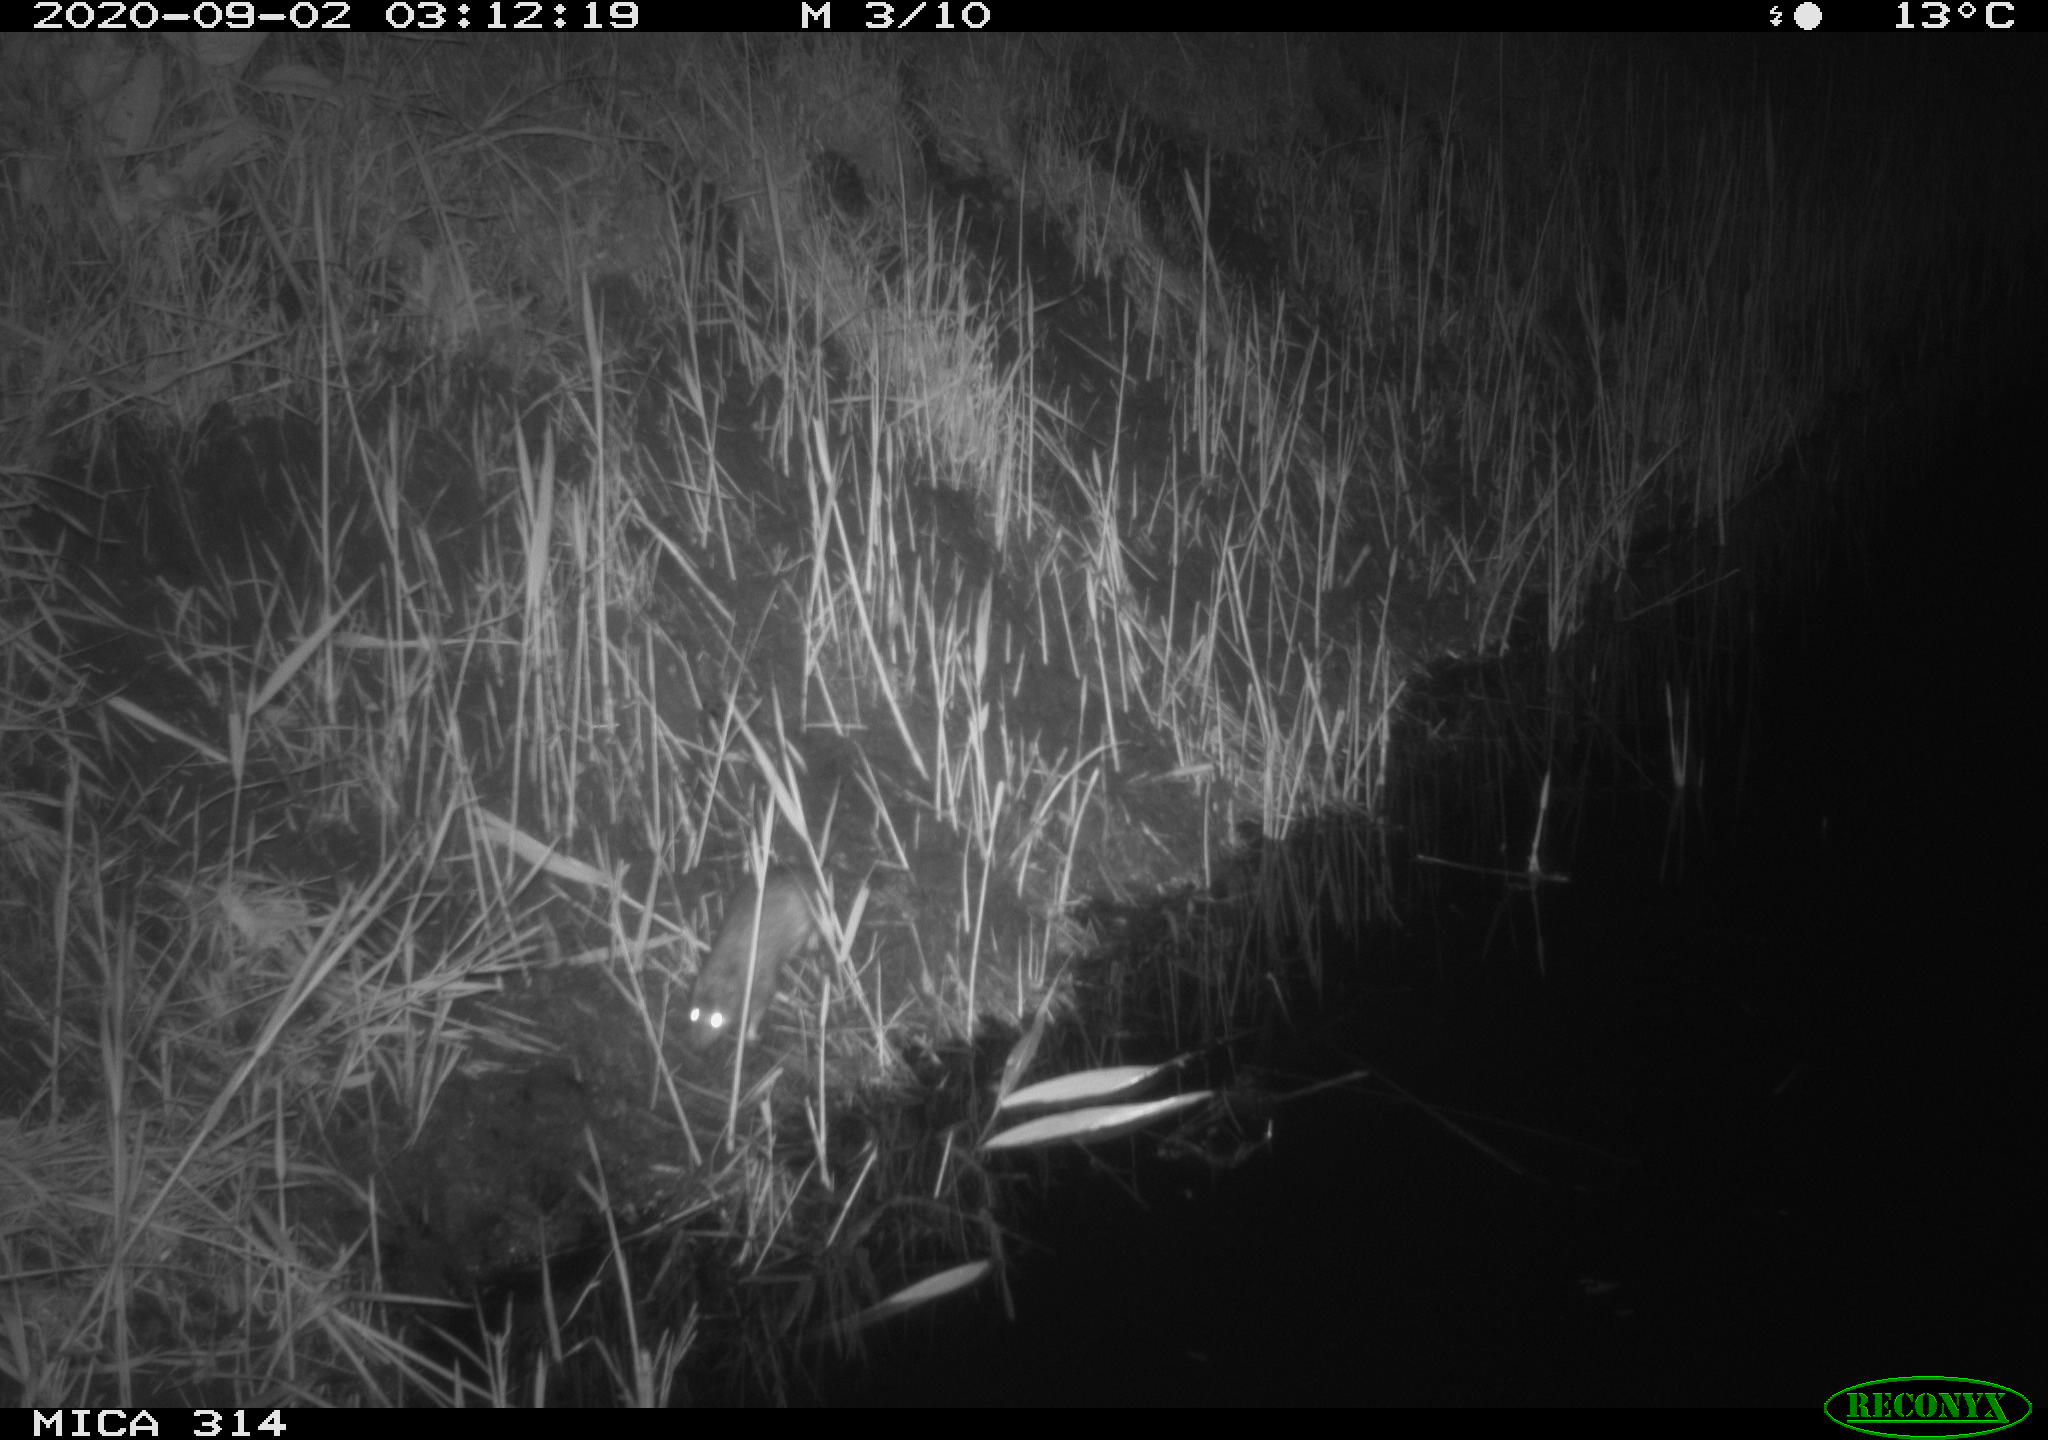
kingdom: Animalia
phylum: Chordata
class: Mammalia
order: Rodentia
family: Muridae
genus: Rattus
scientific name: Rattus norvegicus
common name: Brown rat
